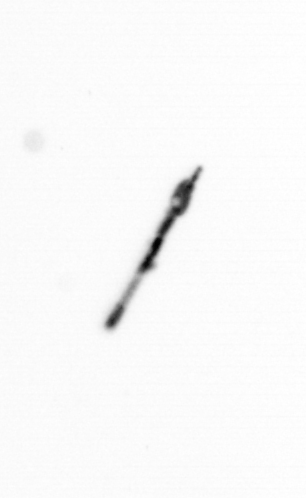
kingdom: Bacteria
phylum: Cyanobacteria
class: Cyanobacteriia
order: Cyanobacteriales
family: Microcoleaceae
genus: Trichodesmium
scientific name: Trichodesmium
